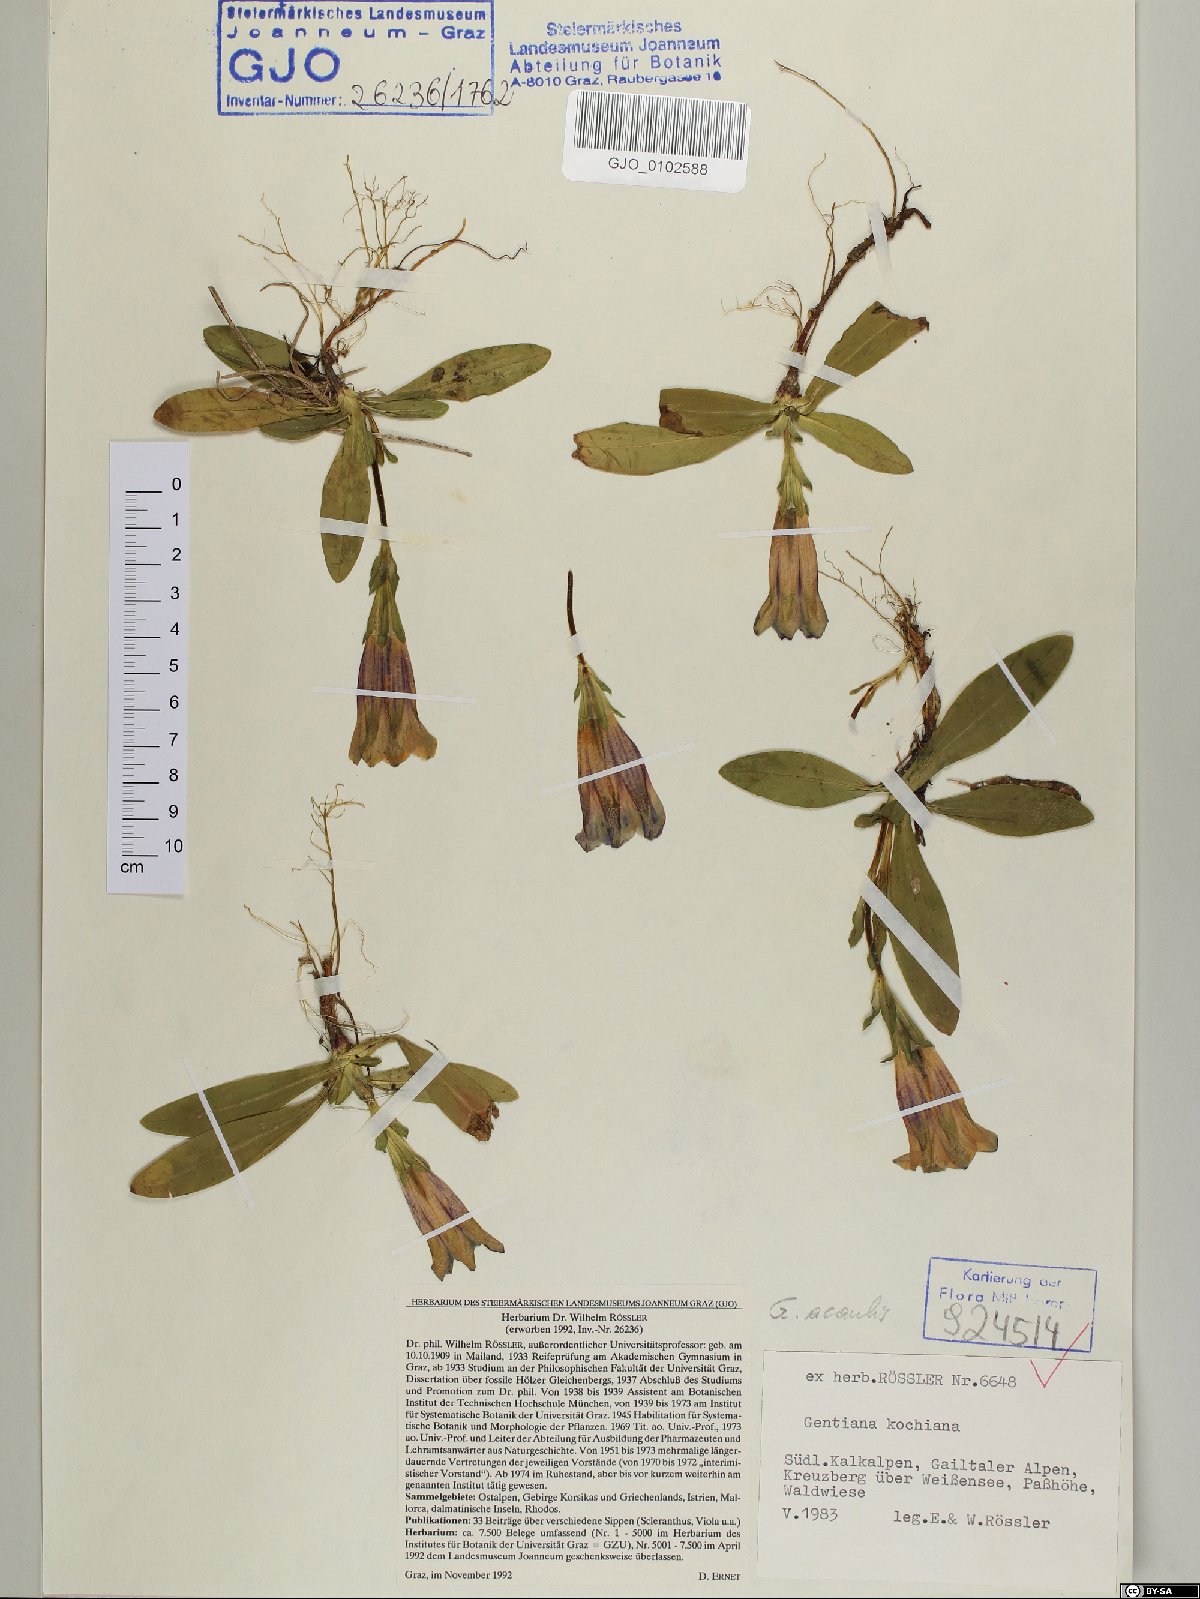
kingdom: Plantae
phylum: Tracheophyta
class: Magnoliopsida
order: Gentianales
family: Gentianaceae
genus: Gentiana
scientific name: Gentiana acaulis
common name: Trumpet gentian
